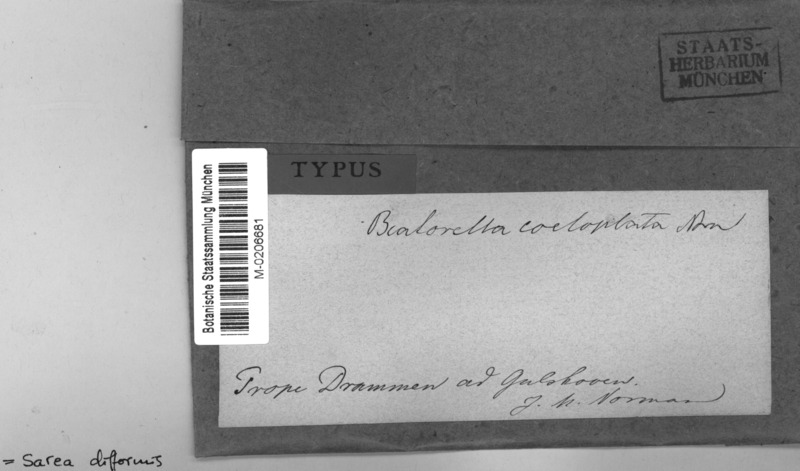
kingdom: Fungi
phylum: Ascomycota
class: Sareomycetes
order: Sareales
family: Sareaceae
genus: Sarea
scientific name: Sarea difformis
